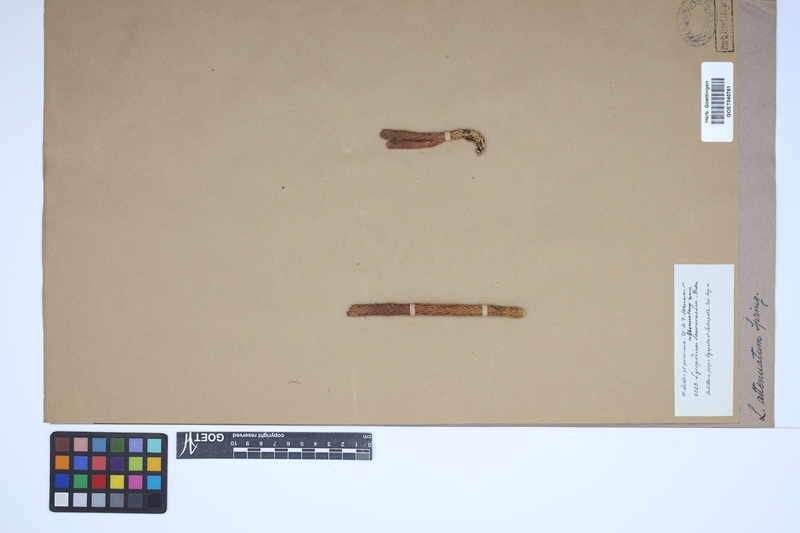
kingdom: Plantae
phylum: Tracheophyta
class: Lycopodiopsida
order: Lycopodiales
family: Lycopodiaceae
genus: Phlegmariurus
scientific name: Phlegmariurus attenuatus
